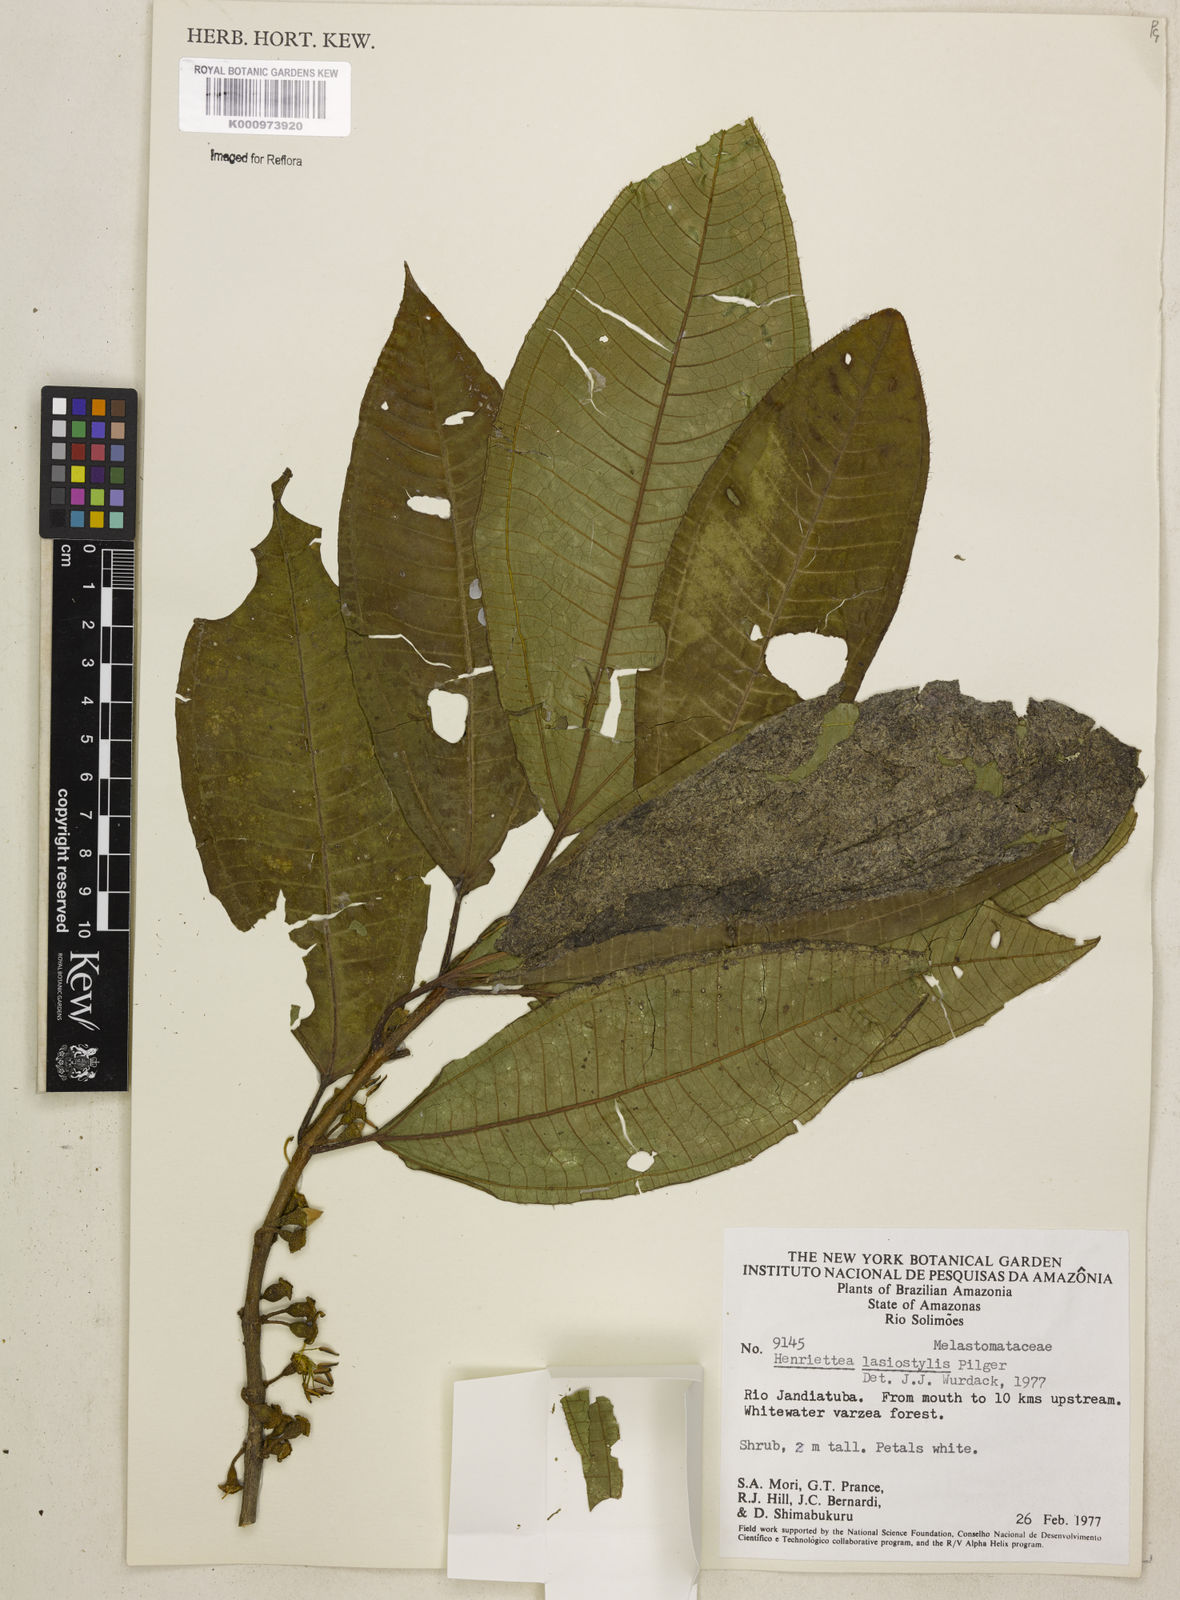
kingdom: Plantae
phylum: Tracheophyta
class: Magnoliopsida
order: Myrtales
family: Melastomataceae
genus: Henriettea
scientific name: Henriettea lasiostylis
